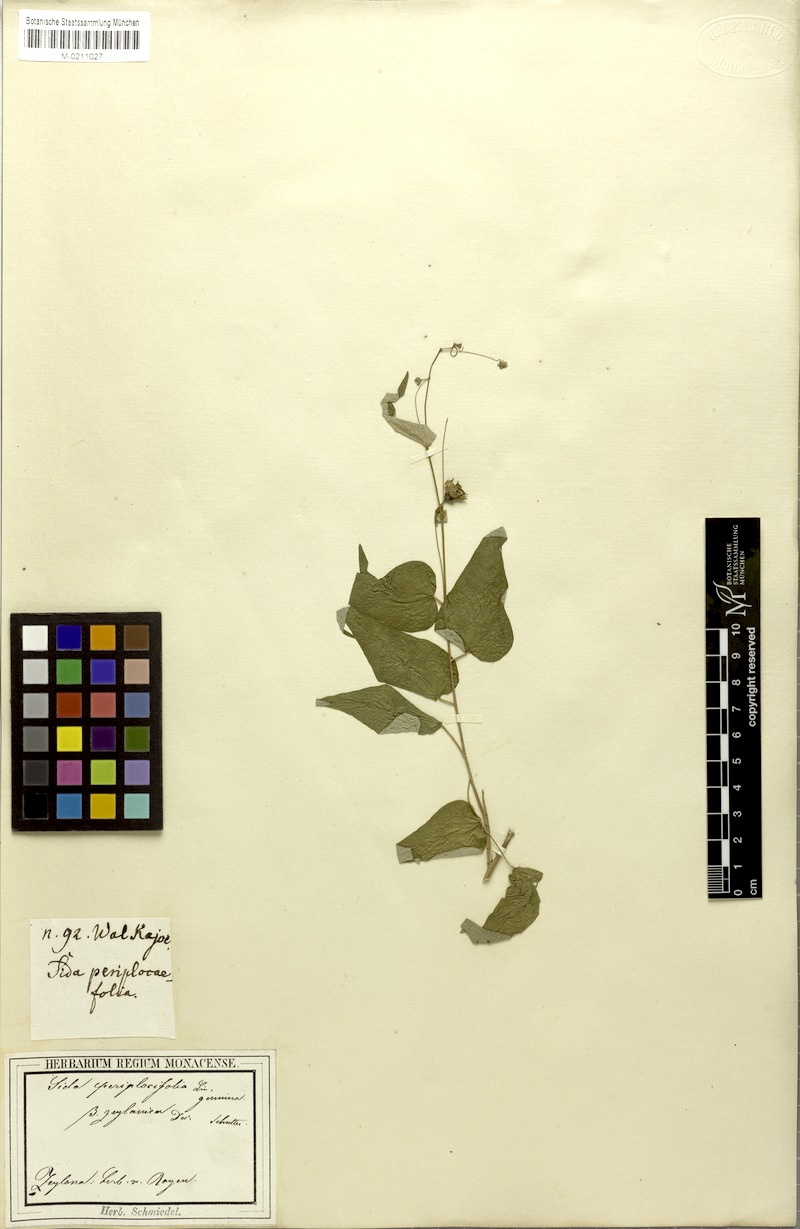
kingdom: Plantae
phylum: Tracheophyta
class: Magnoliopsida
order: Malvales
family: Malvaceae
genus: Wissadula
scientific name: Wissadula periplocifolia
